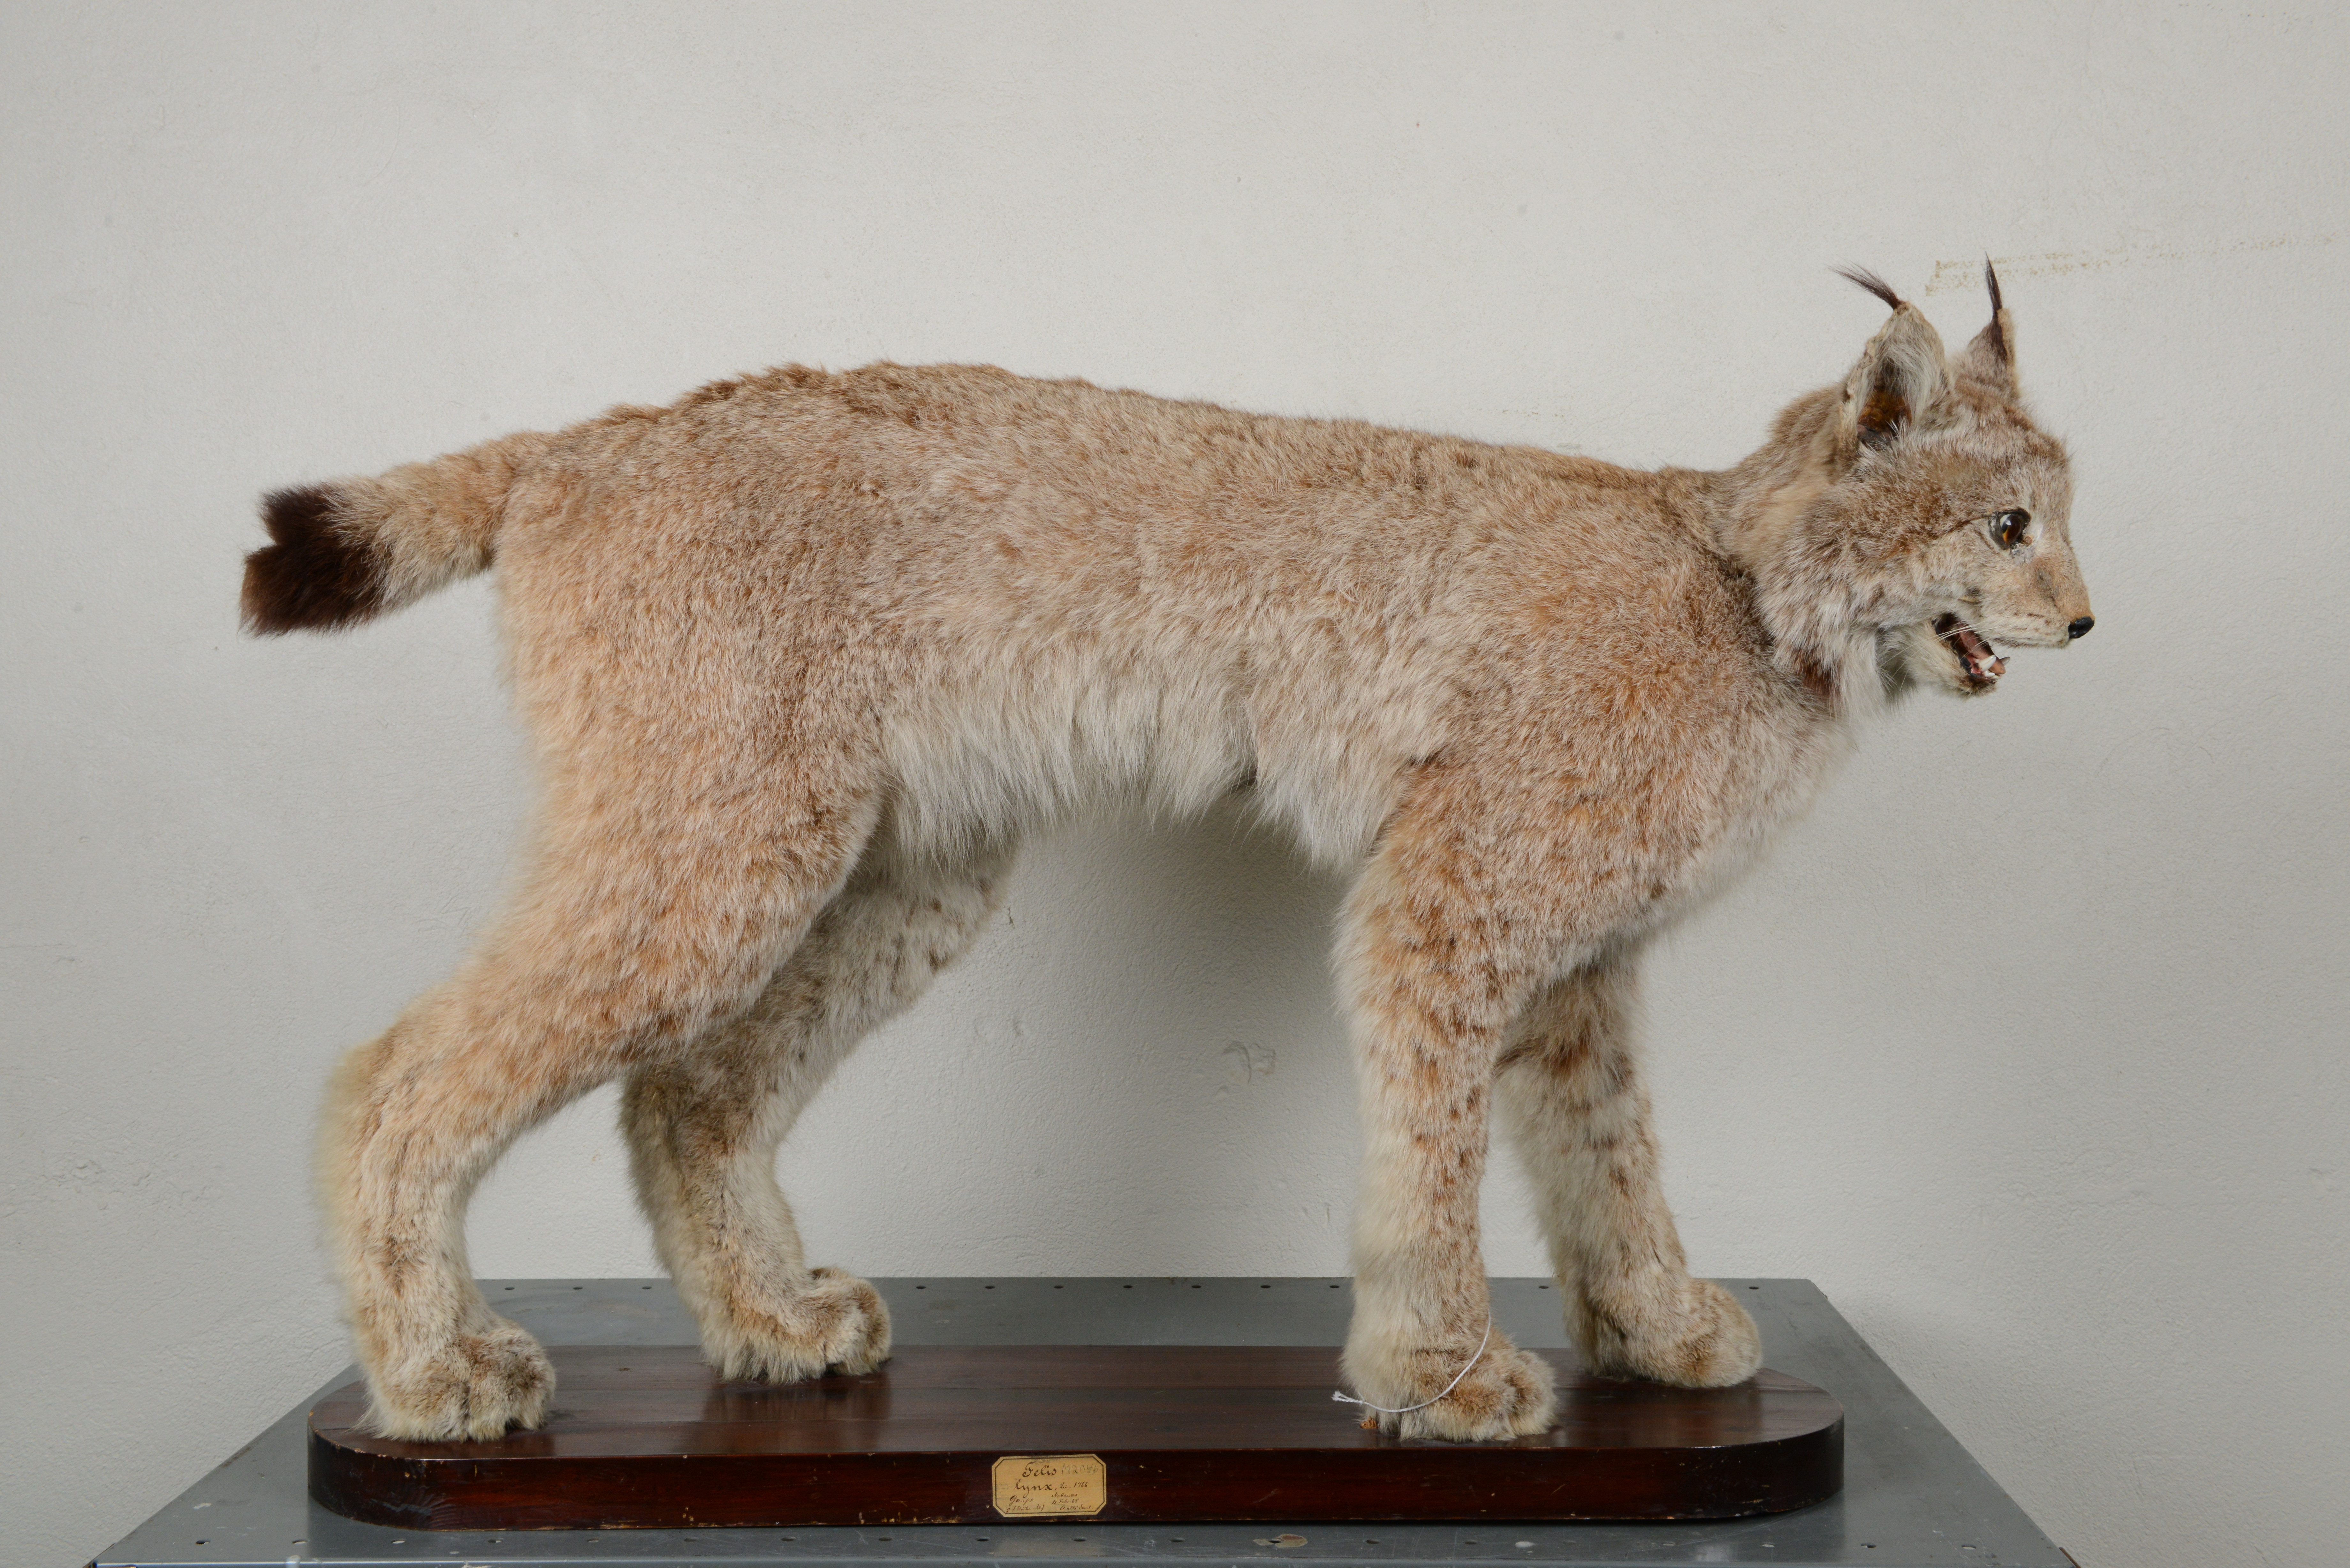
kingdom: Animalia
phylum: Chordata
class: Mammalia
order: Carnivora
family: Felidae
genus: Lynx
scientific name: Lynx lynx
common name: Eurasian lynx
